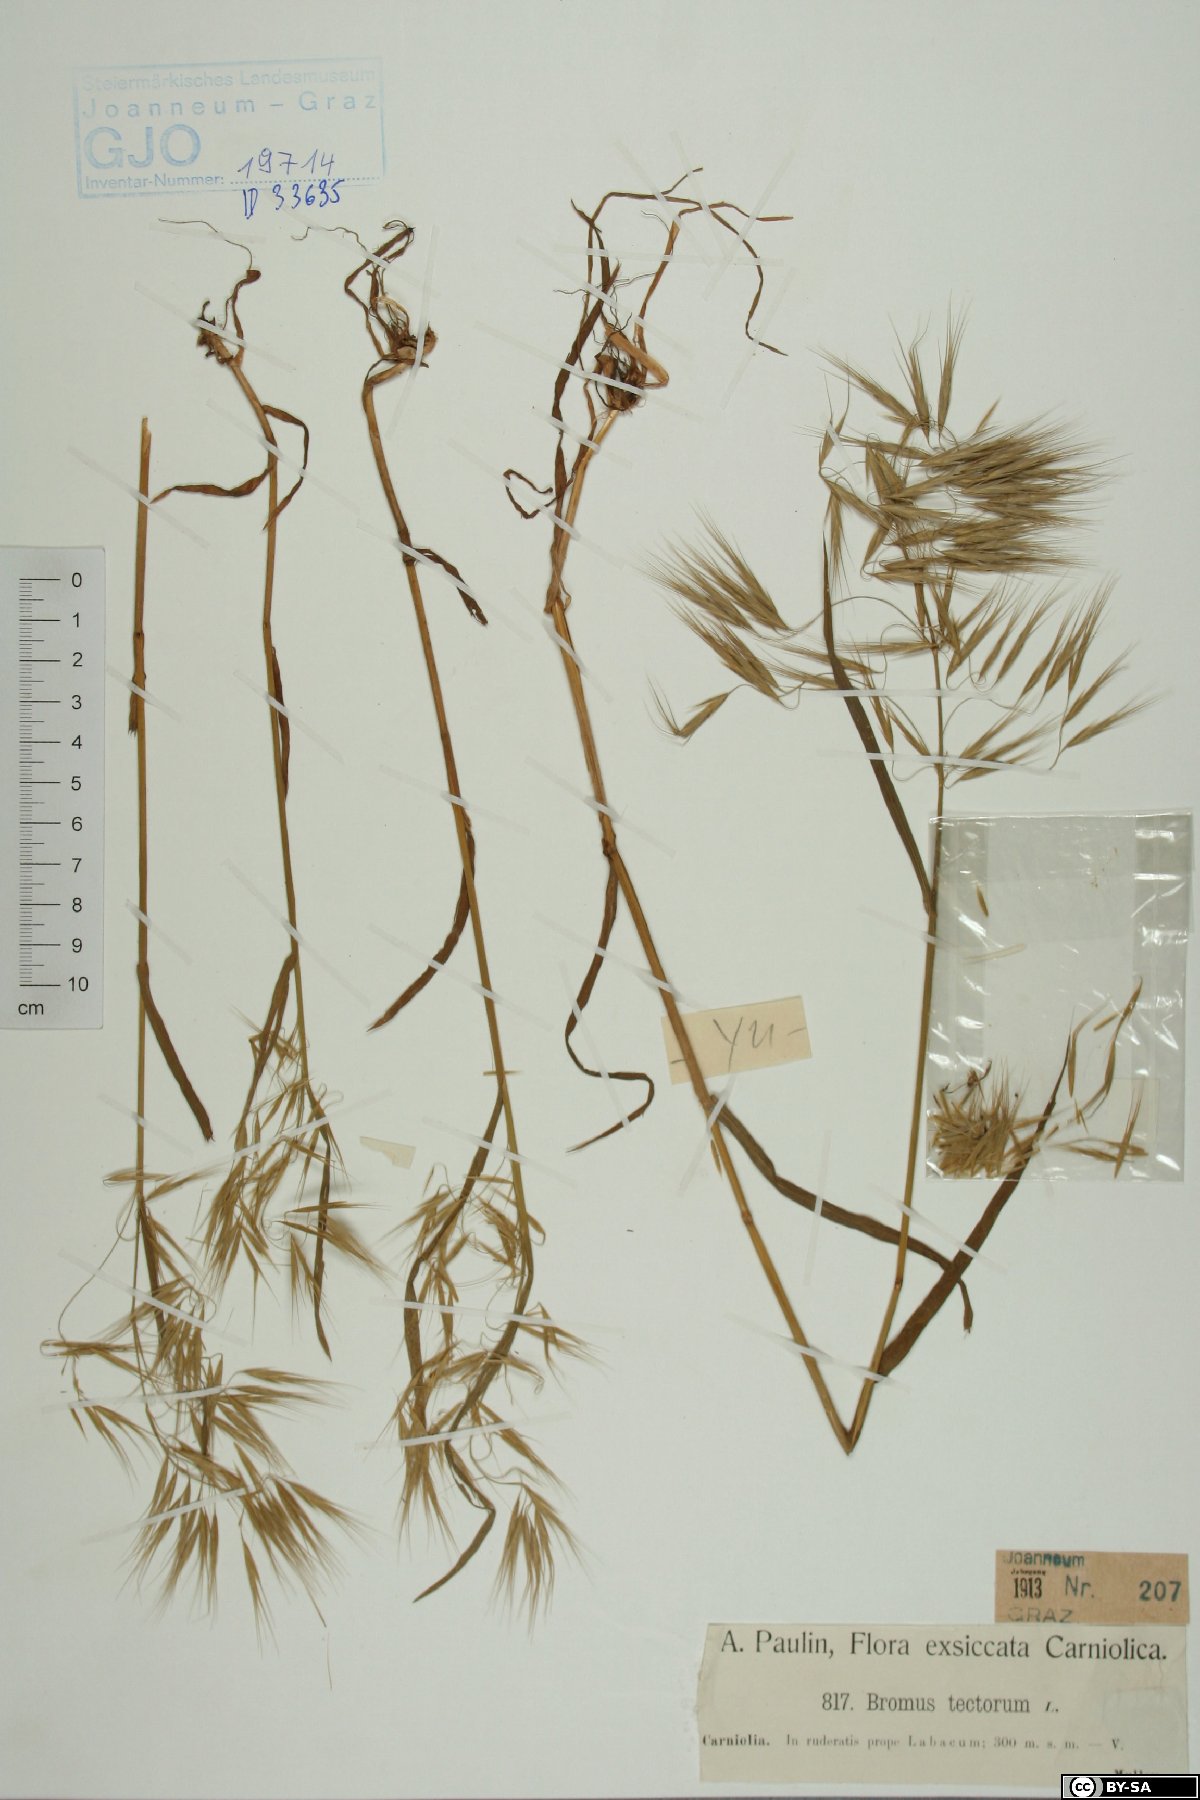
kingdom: Plantae
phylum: Tracheophyta
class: Liliopsida
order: Poales
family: Poaceae
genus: Bromus
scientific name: Bromus tectorum
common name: Cheatgrass
